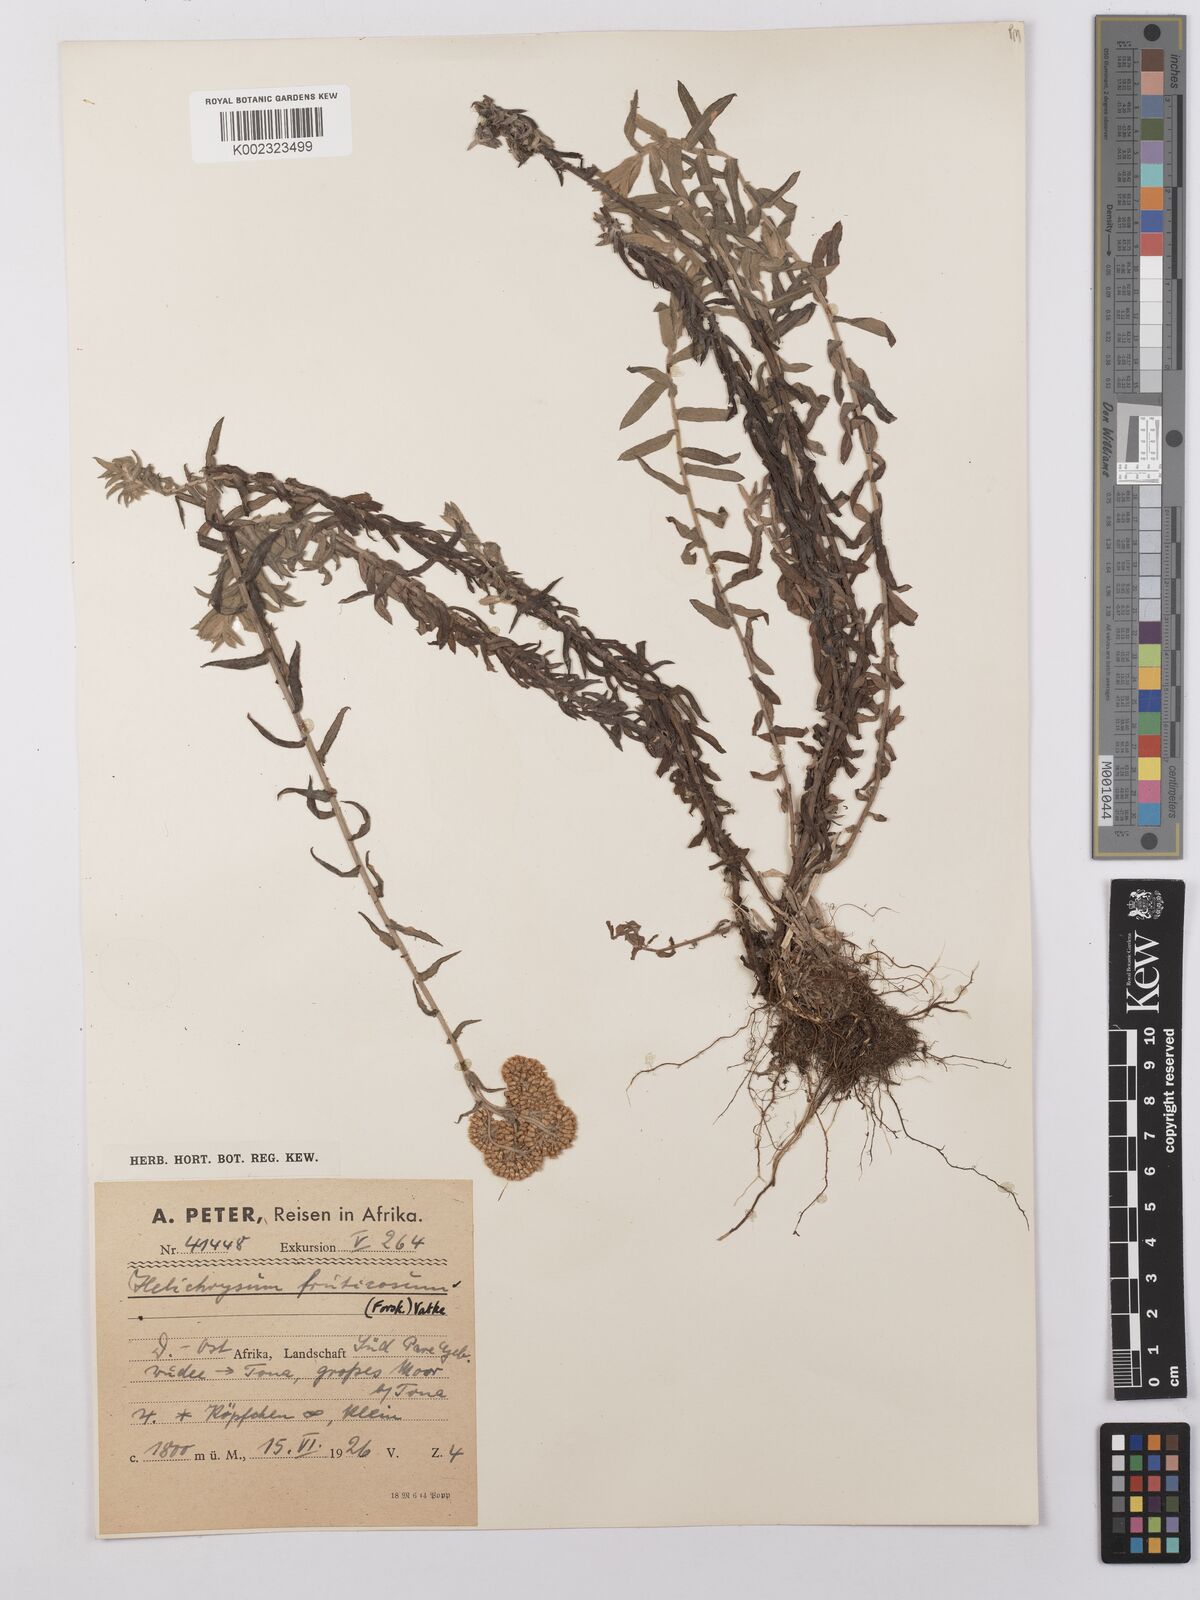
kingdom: Plantae
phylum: Tracheophyta
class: Magnoliopsida
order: Asterales
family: Asteraceae
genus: Helichrysum
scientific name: Helichrysum forskahlii
